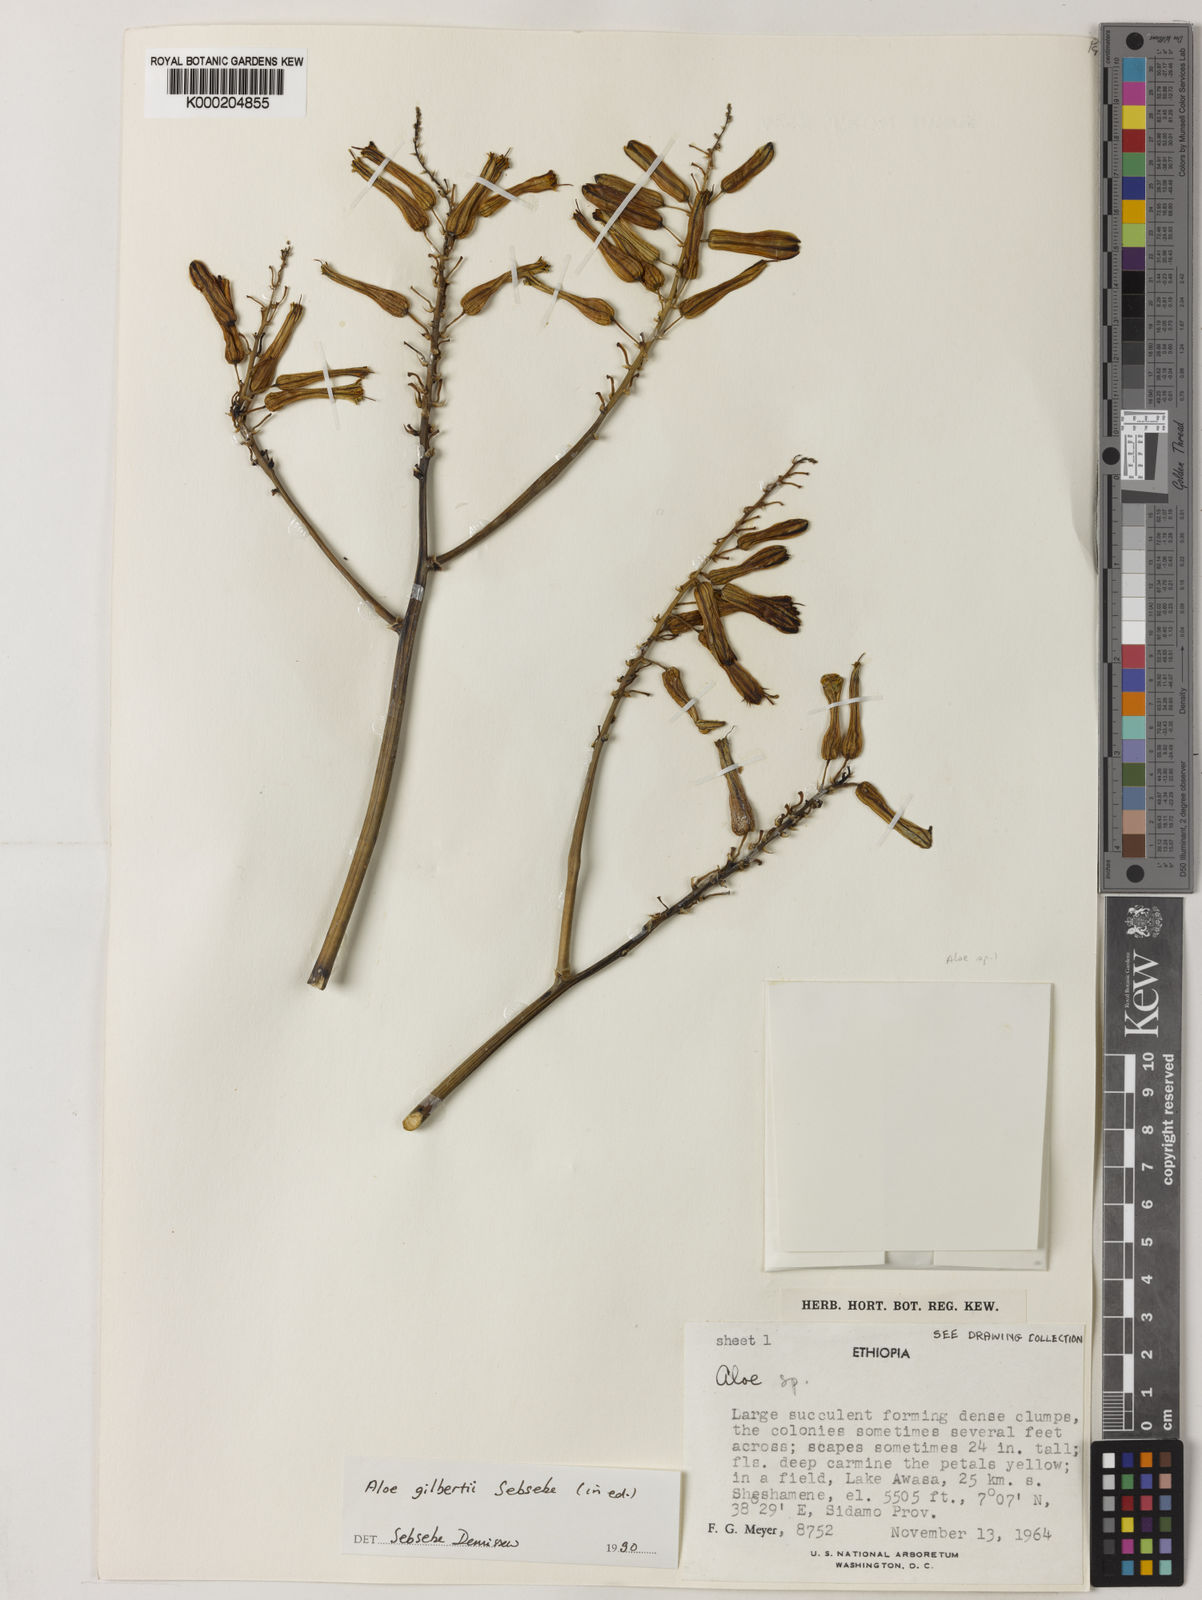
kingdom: Plantae
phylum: Tracheophyta
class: Liliopsida
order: Asparagales
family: Asphodelaceae
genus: Aloe
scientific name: Aloe gilbertii
